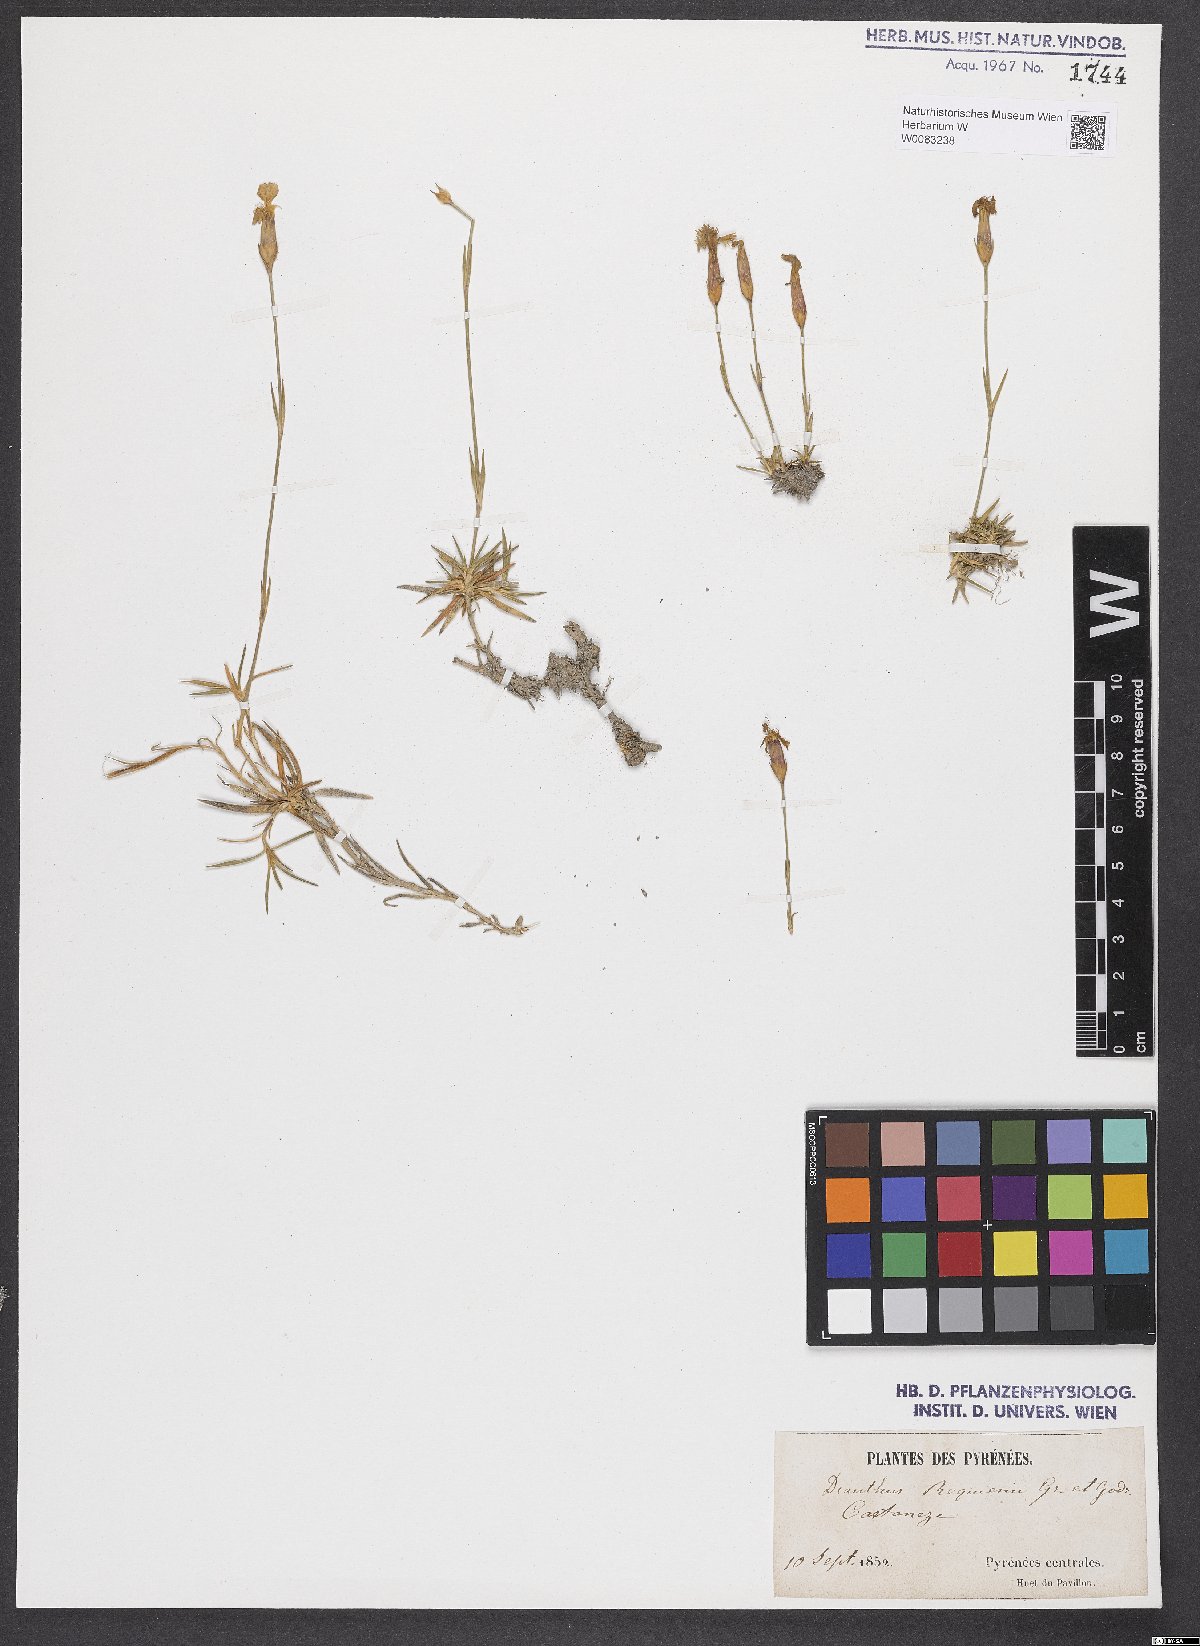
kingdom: Plantae
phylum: Tracheophyta
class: Magnoliopsida
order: Caryophyllales
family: Caryophyllaceae
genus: Dianthus
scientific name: Dianthus furcatus
